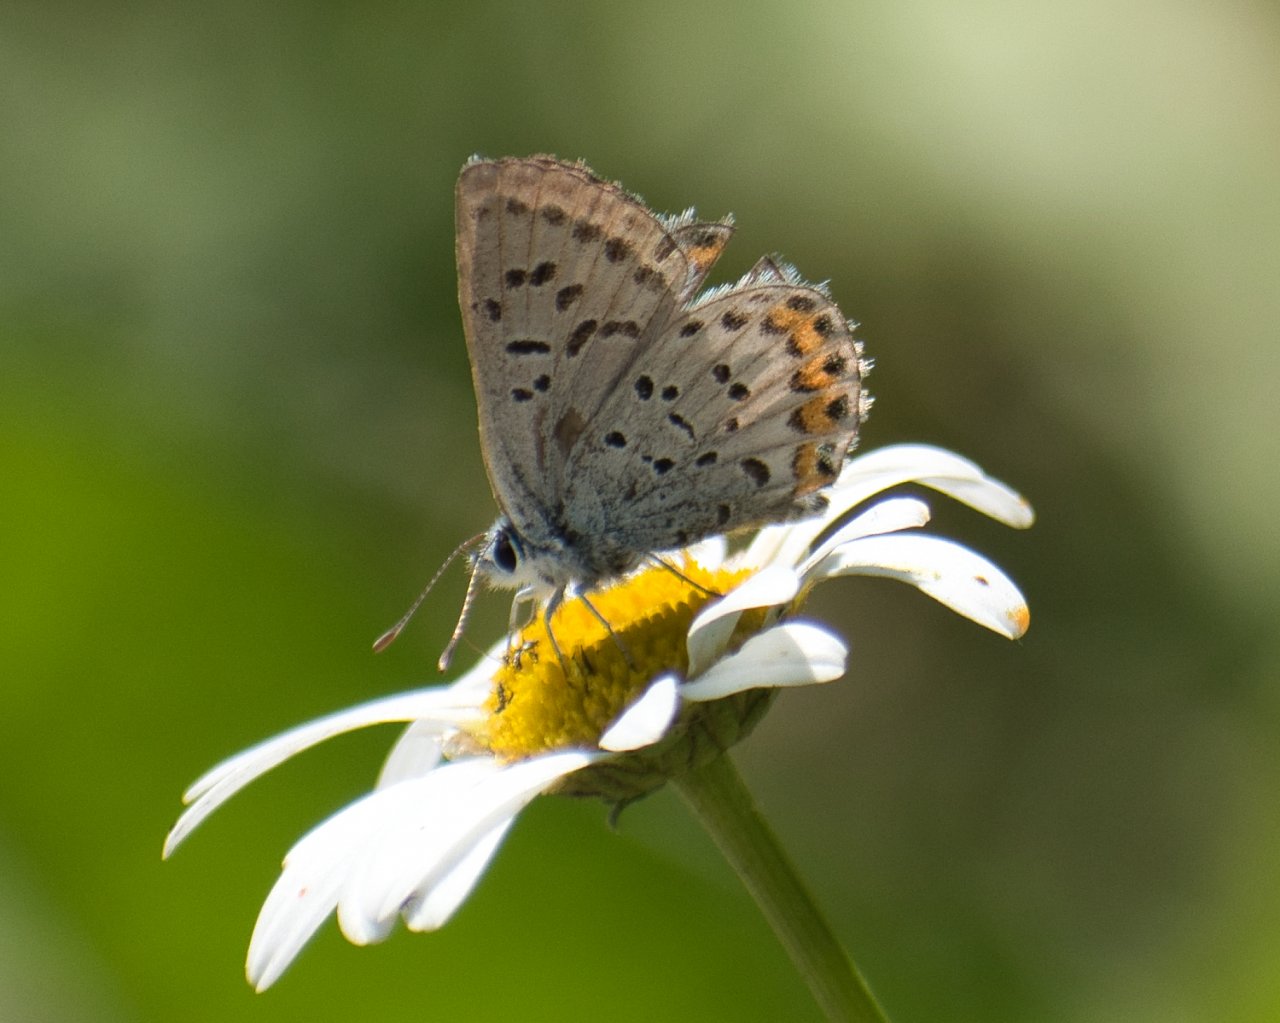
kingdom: Animalia
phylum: Arthropoda
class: Insecta
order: Lepidoptera
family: Lycaenidae
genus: Plebejus
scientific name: Plebejus lupini
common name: Lupine Blue
